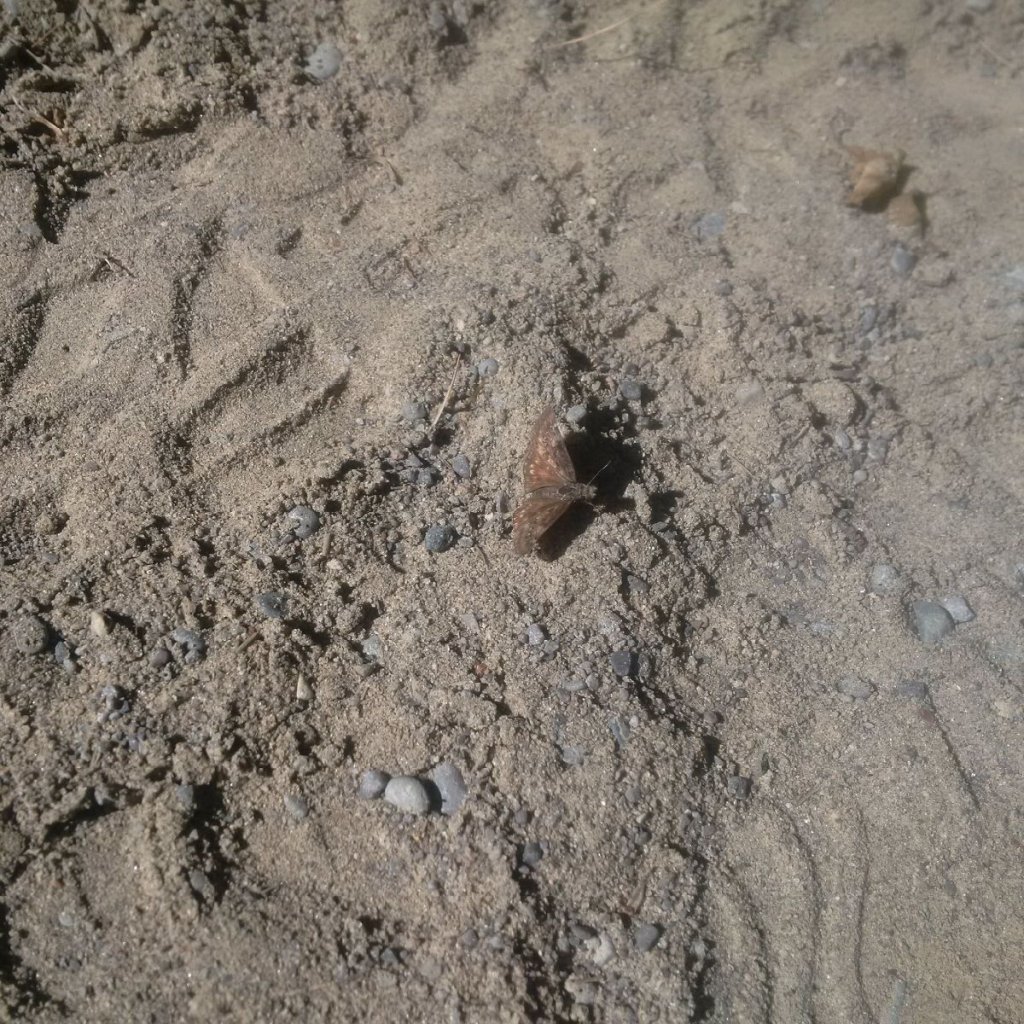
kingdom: Animalia
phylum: Arthropoda
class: Insecta
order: Lepidoptera
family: Hesperiidae
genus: Gesta
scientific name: Gesta
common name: Wild Indigo Duskywing
